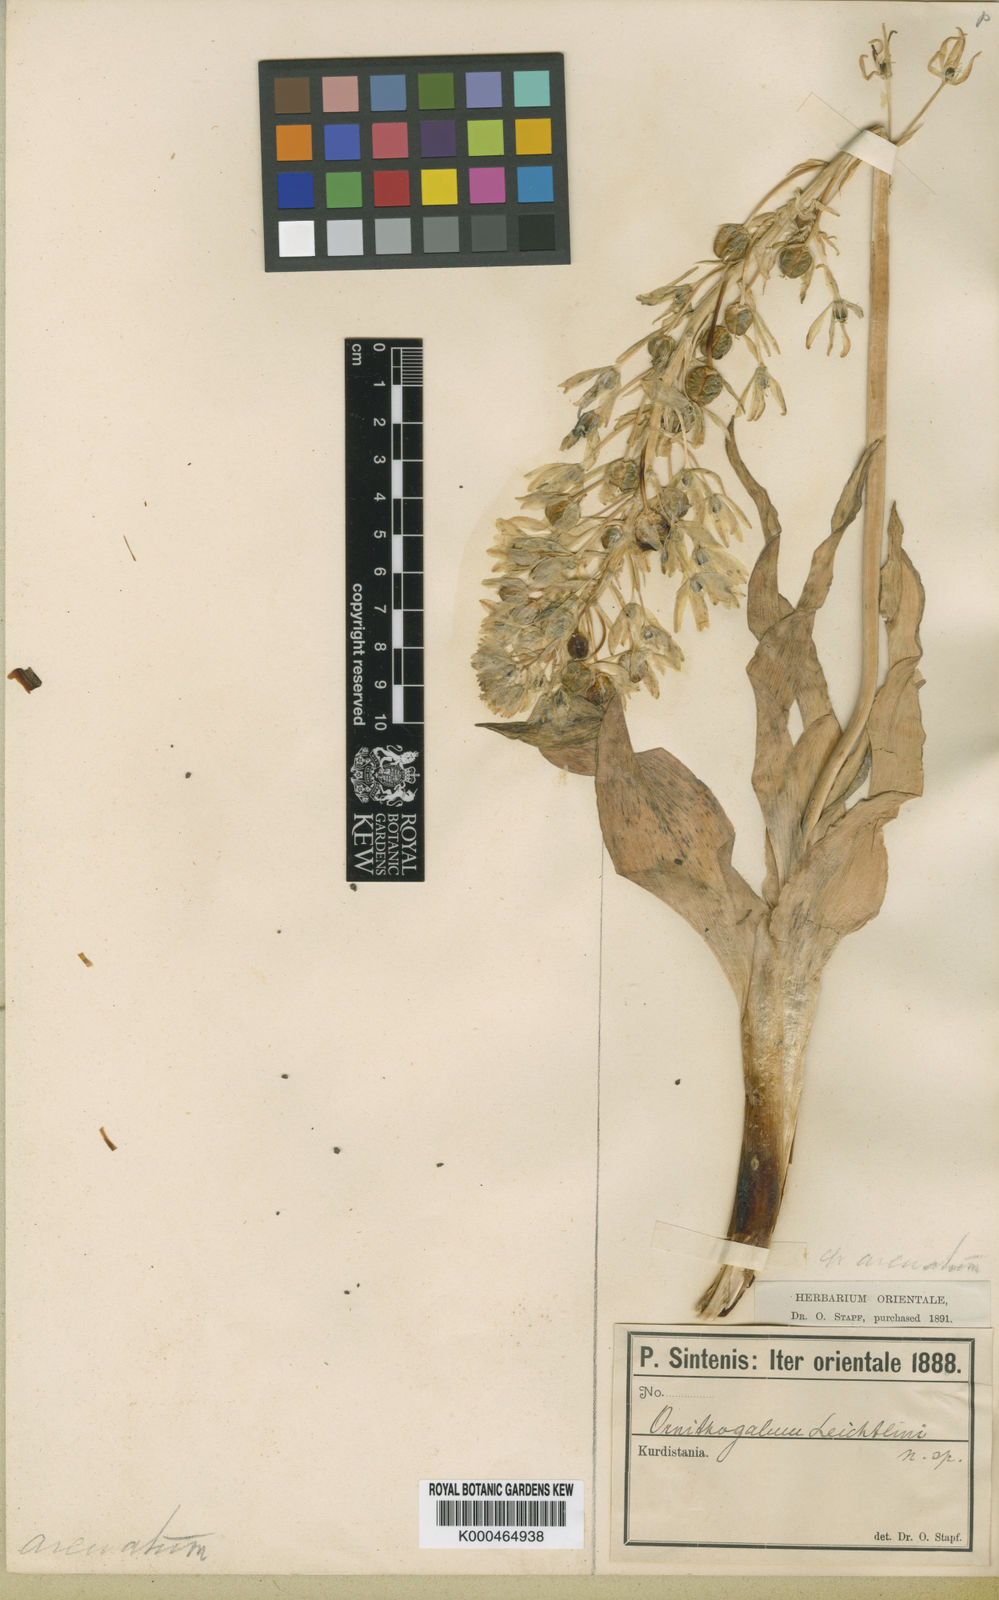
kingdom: Plantae
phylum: Tracheophyta
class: Liliopsida
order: Asparagales
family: Asparagaceae
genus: Ornithogalum
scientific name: Ornithogalum
